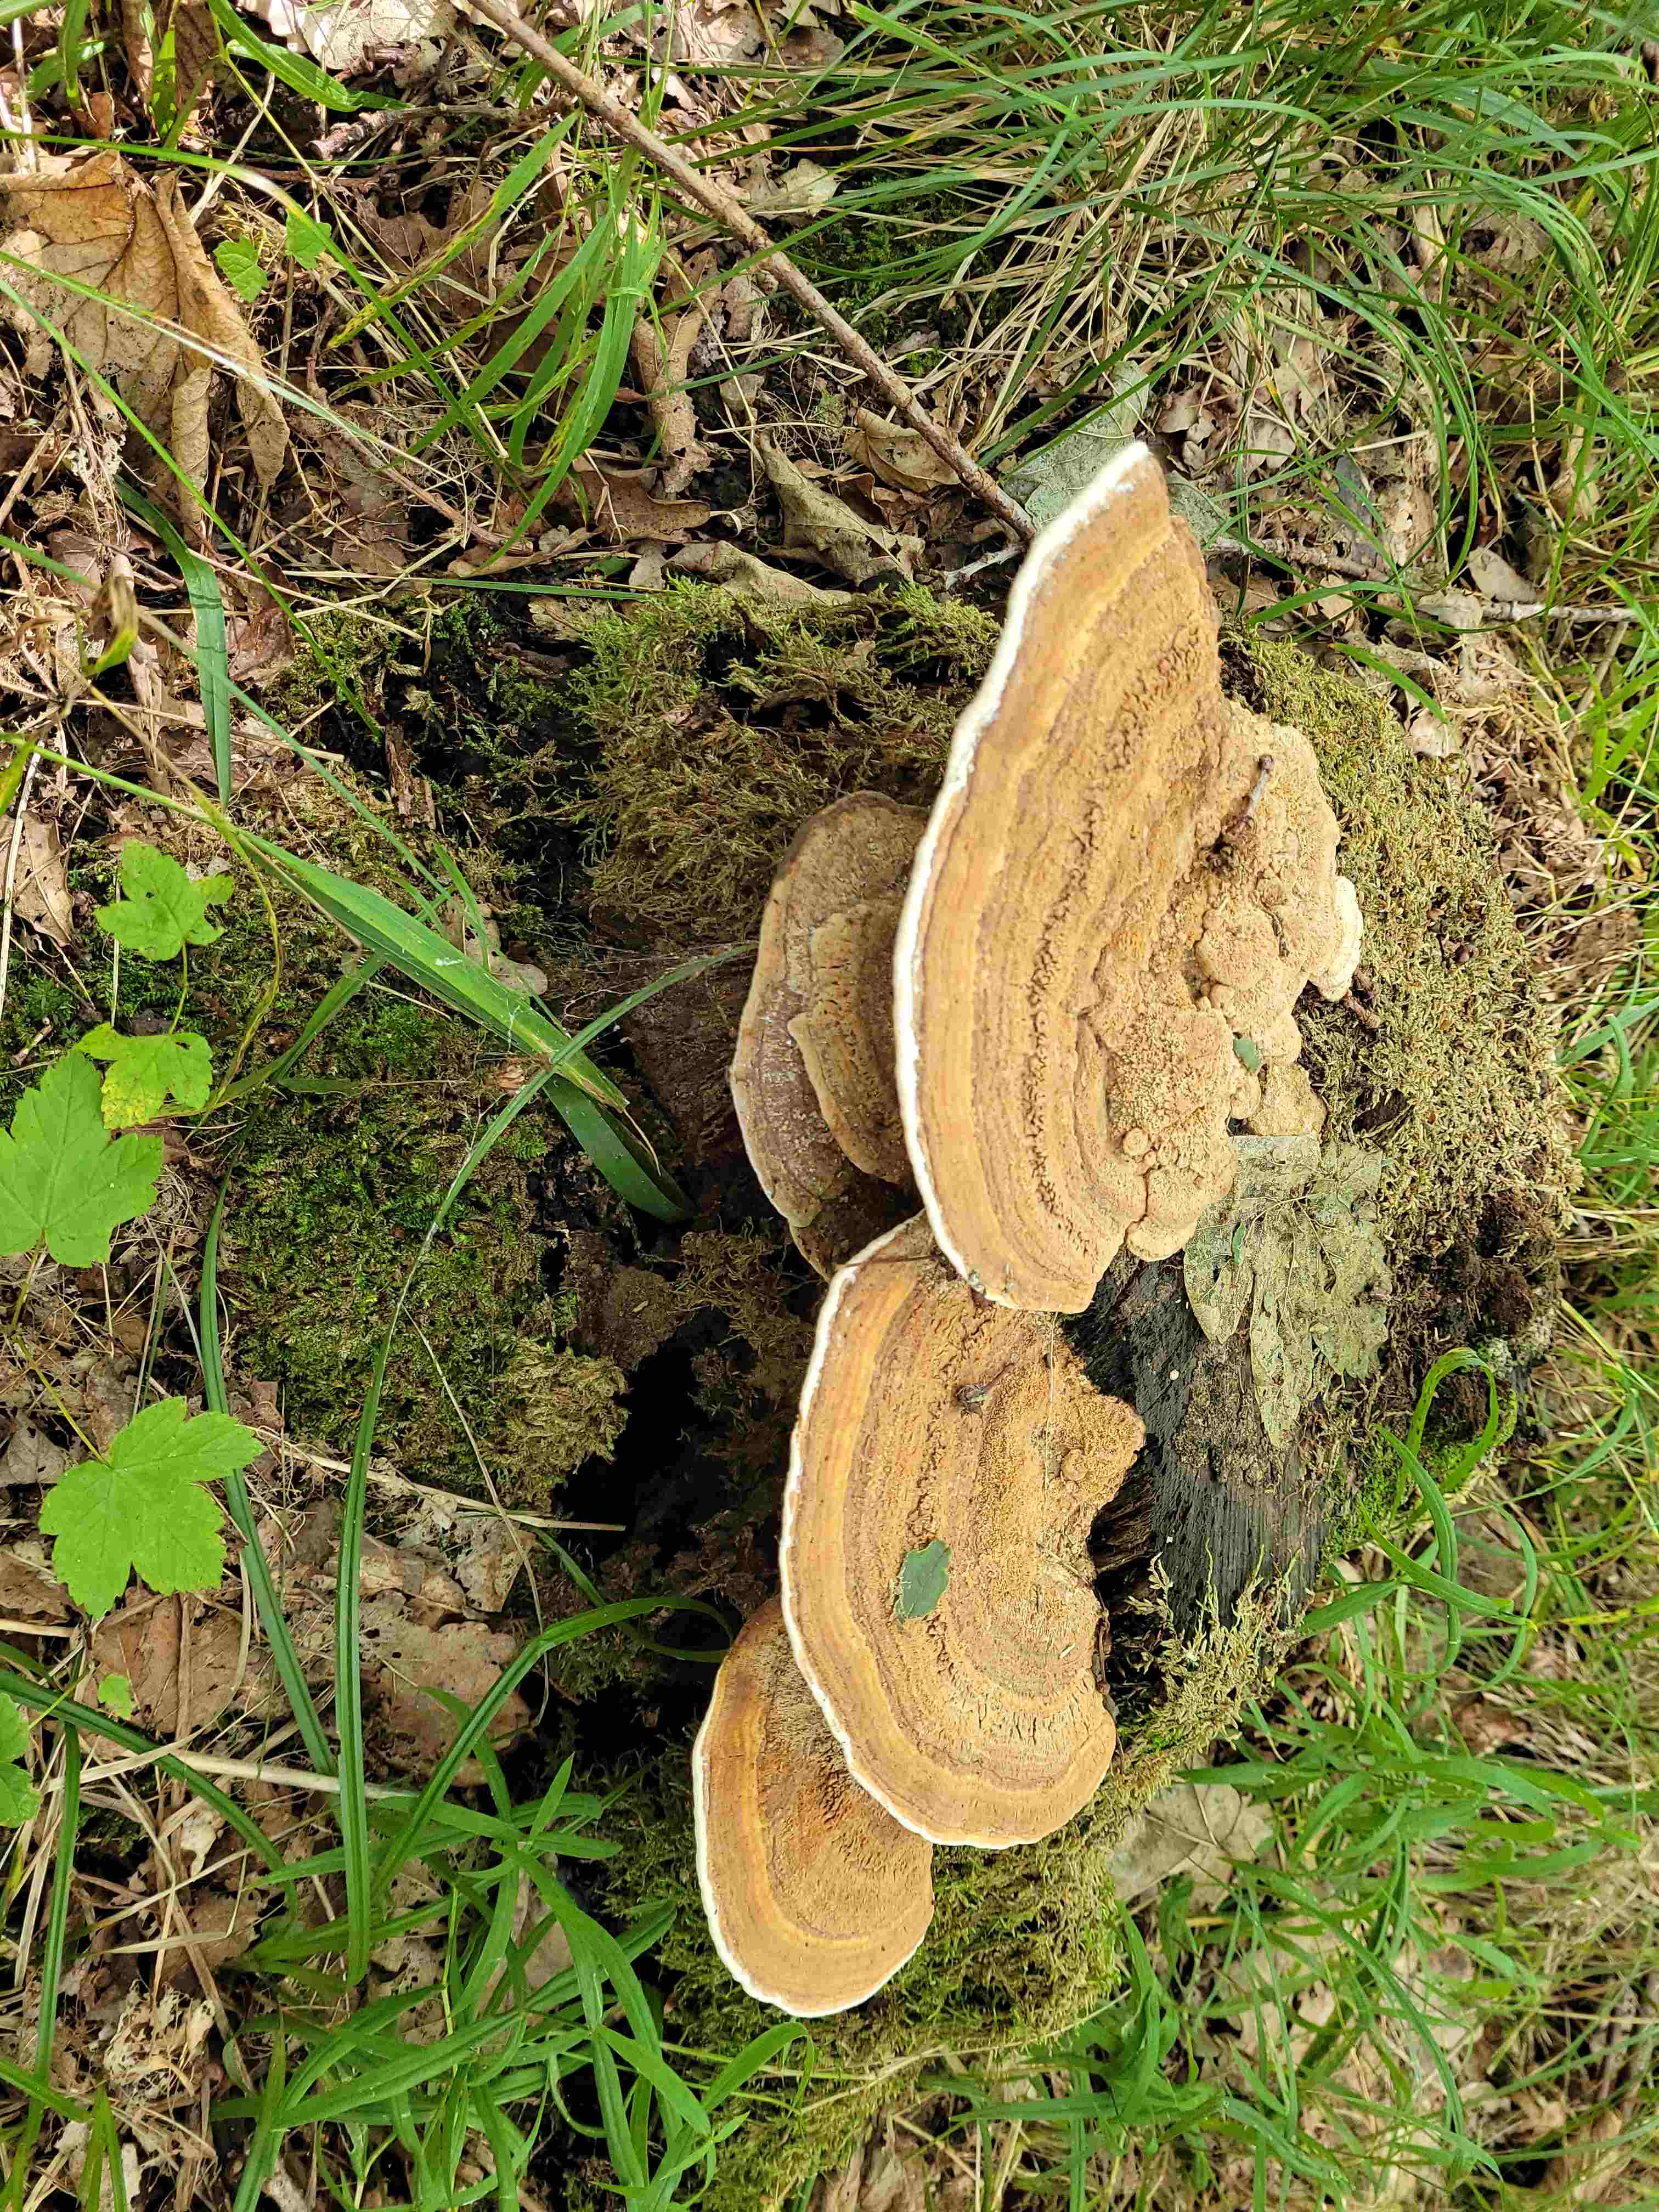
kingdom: Fungi
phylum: Basidiomycota
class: Agaricomycetes
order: Polyporales
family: Polyporaceae
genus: Ganoderma
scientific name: Ganoderma applanatum
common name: flad lakporesvamp
